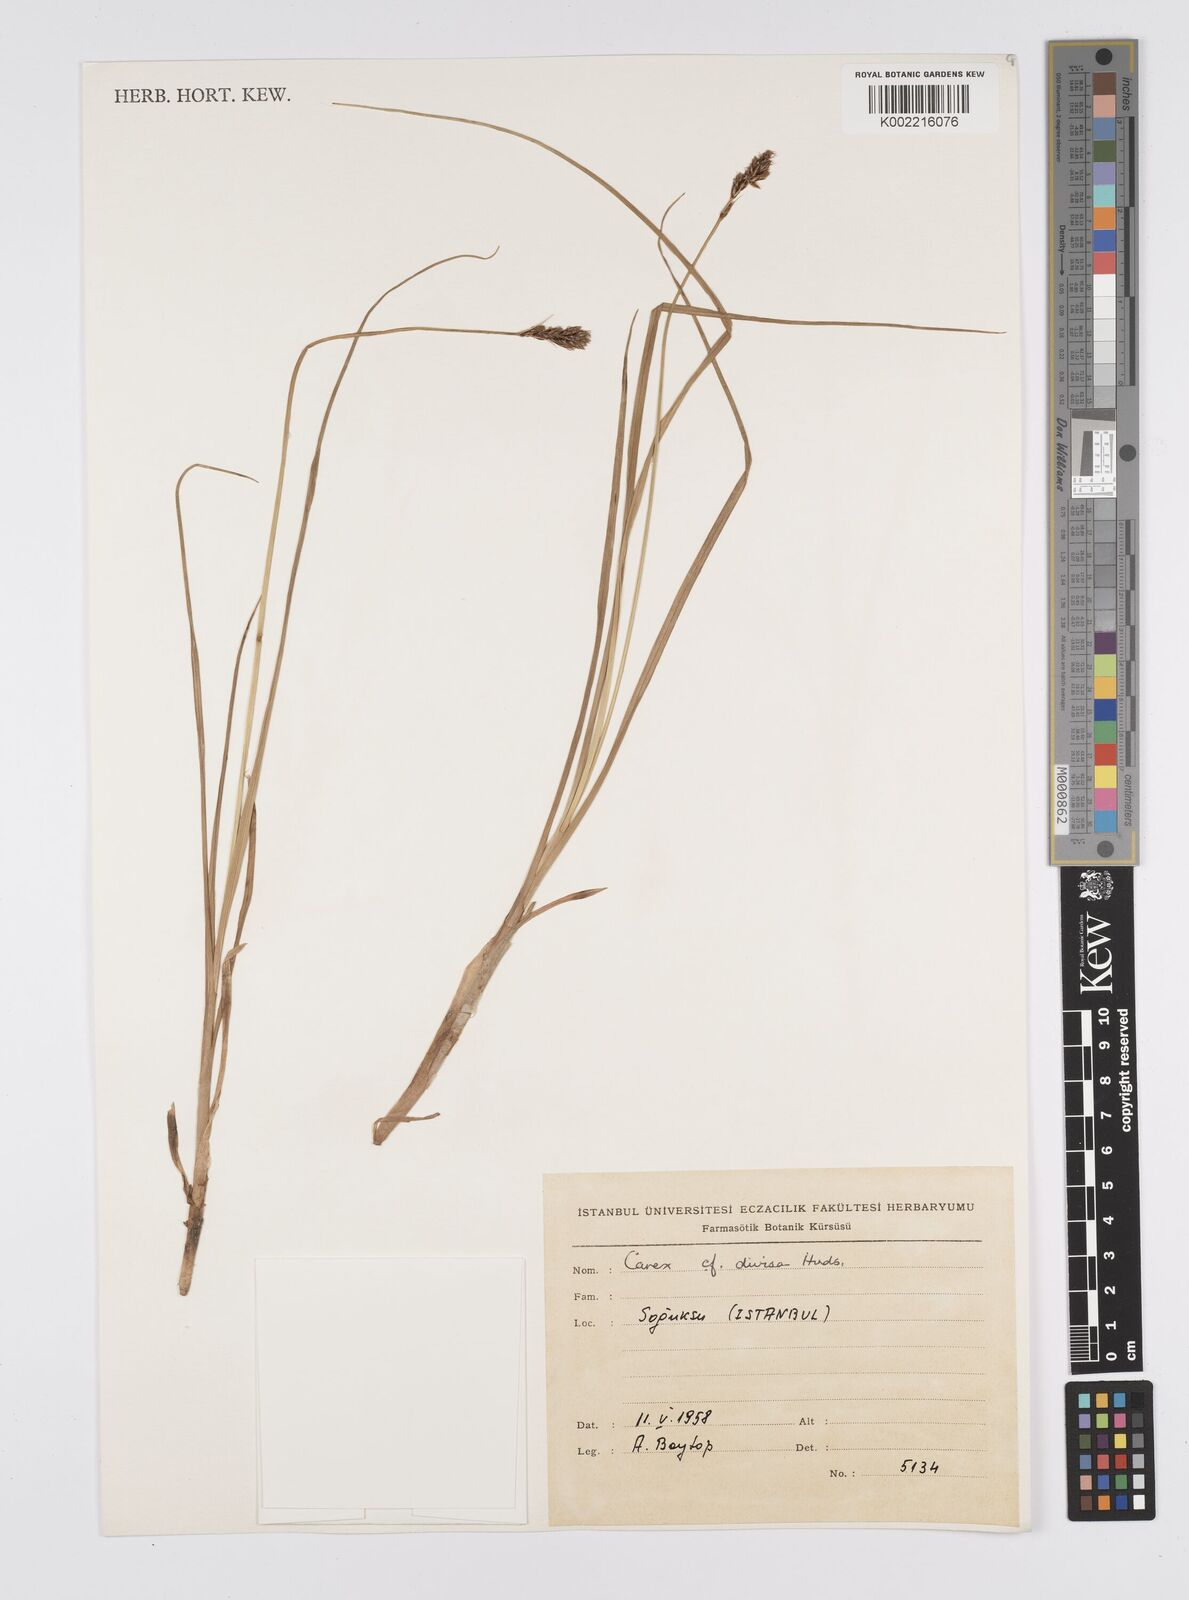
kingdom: Plantae
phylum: Tracheophyta
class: Liliopsida
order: Poales
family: Cyperaceae
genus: Carex
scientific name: Carex divisa
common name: Divided sedge
